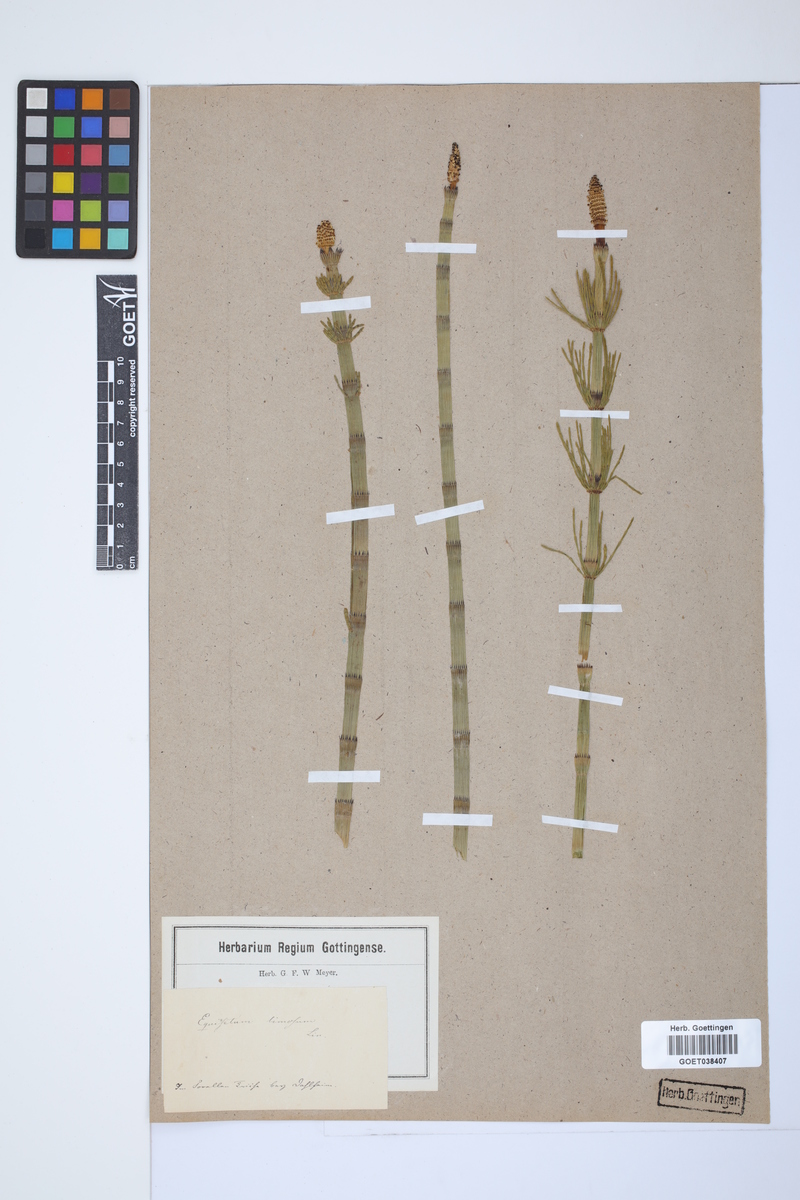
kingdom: Plantae
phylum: Tracheophyta
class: Polypodiopsida
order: Equisetales
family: Equisetaceae
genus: Equisetum
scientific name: Equisetum fluviatile
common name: Water horsetail
